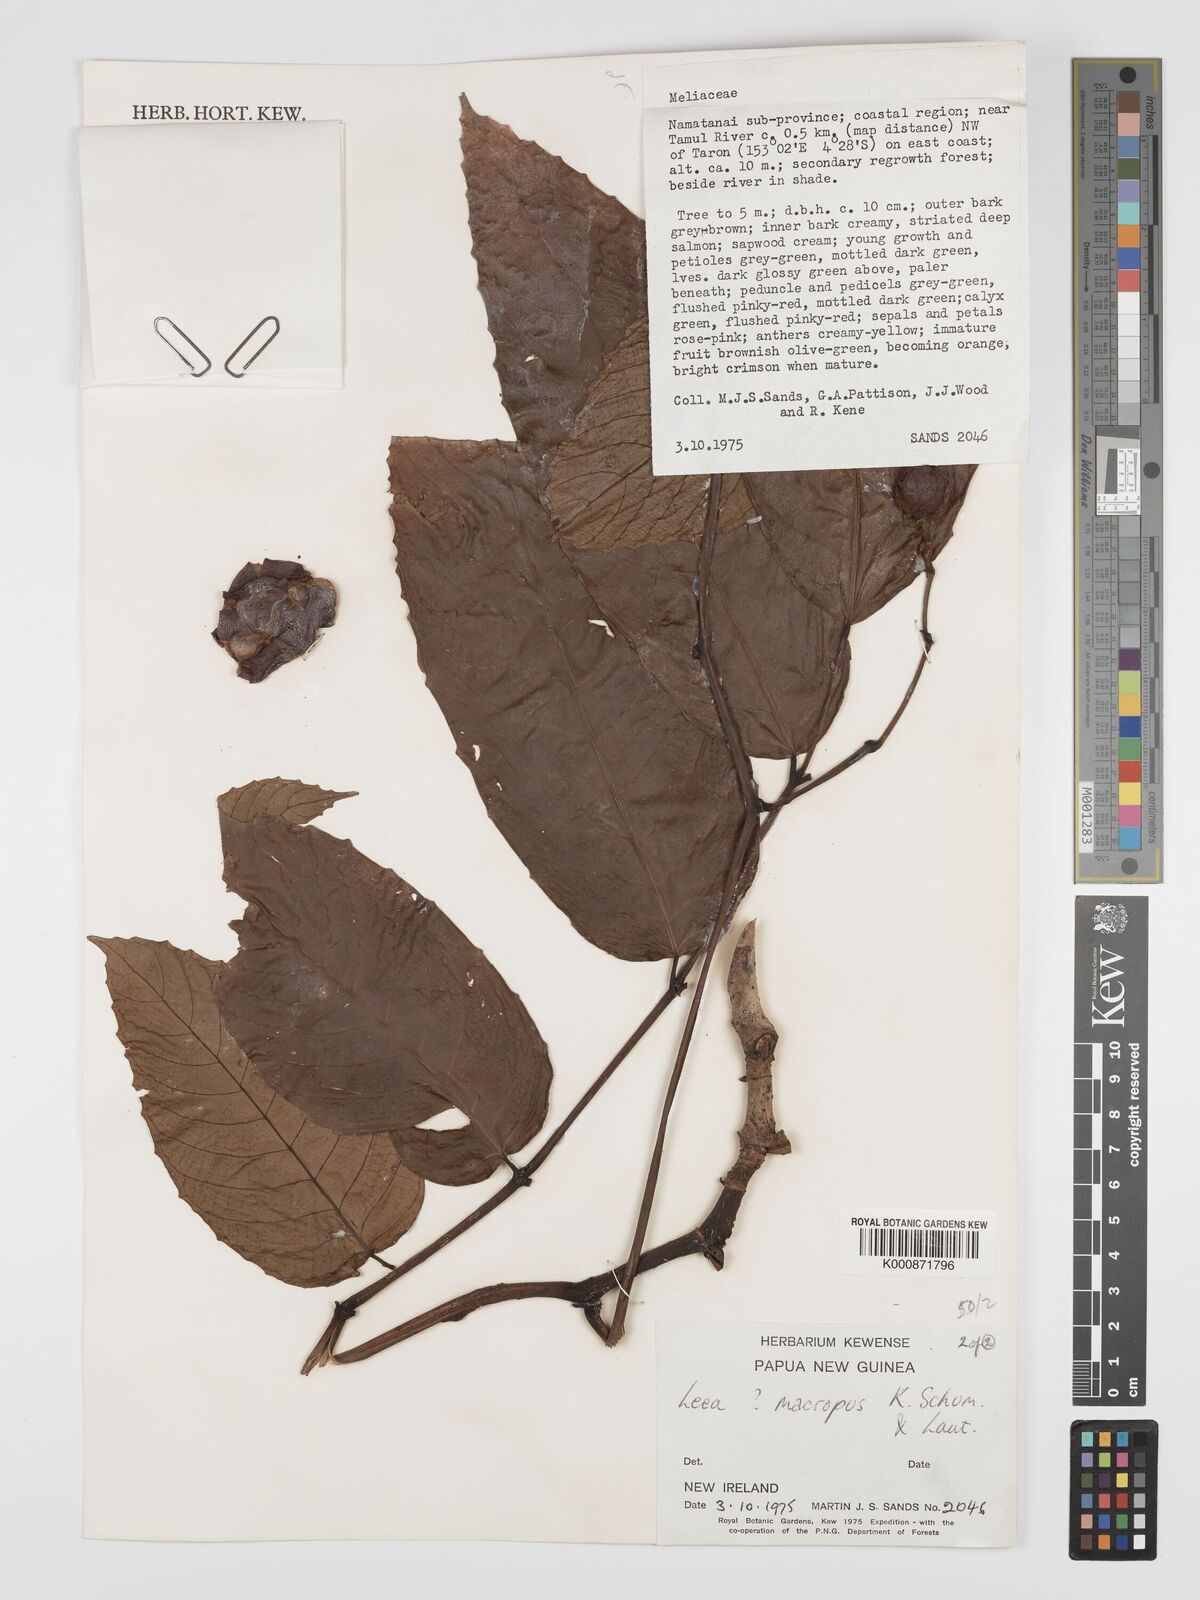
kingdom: Plantae
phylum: Tracheophyta
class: Magnoliopsida
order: Vitales
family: Vitaceae
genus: Leea
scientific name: Leea macropus
